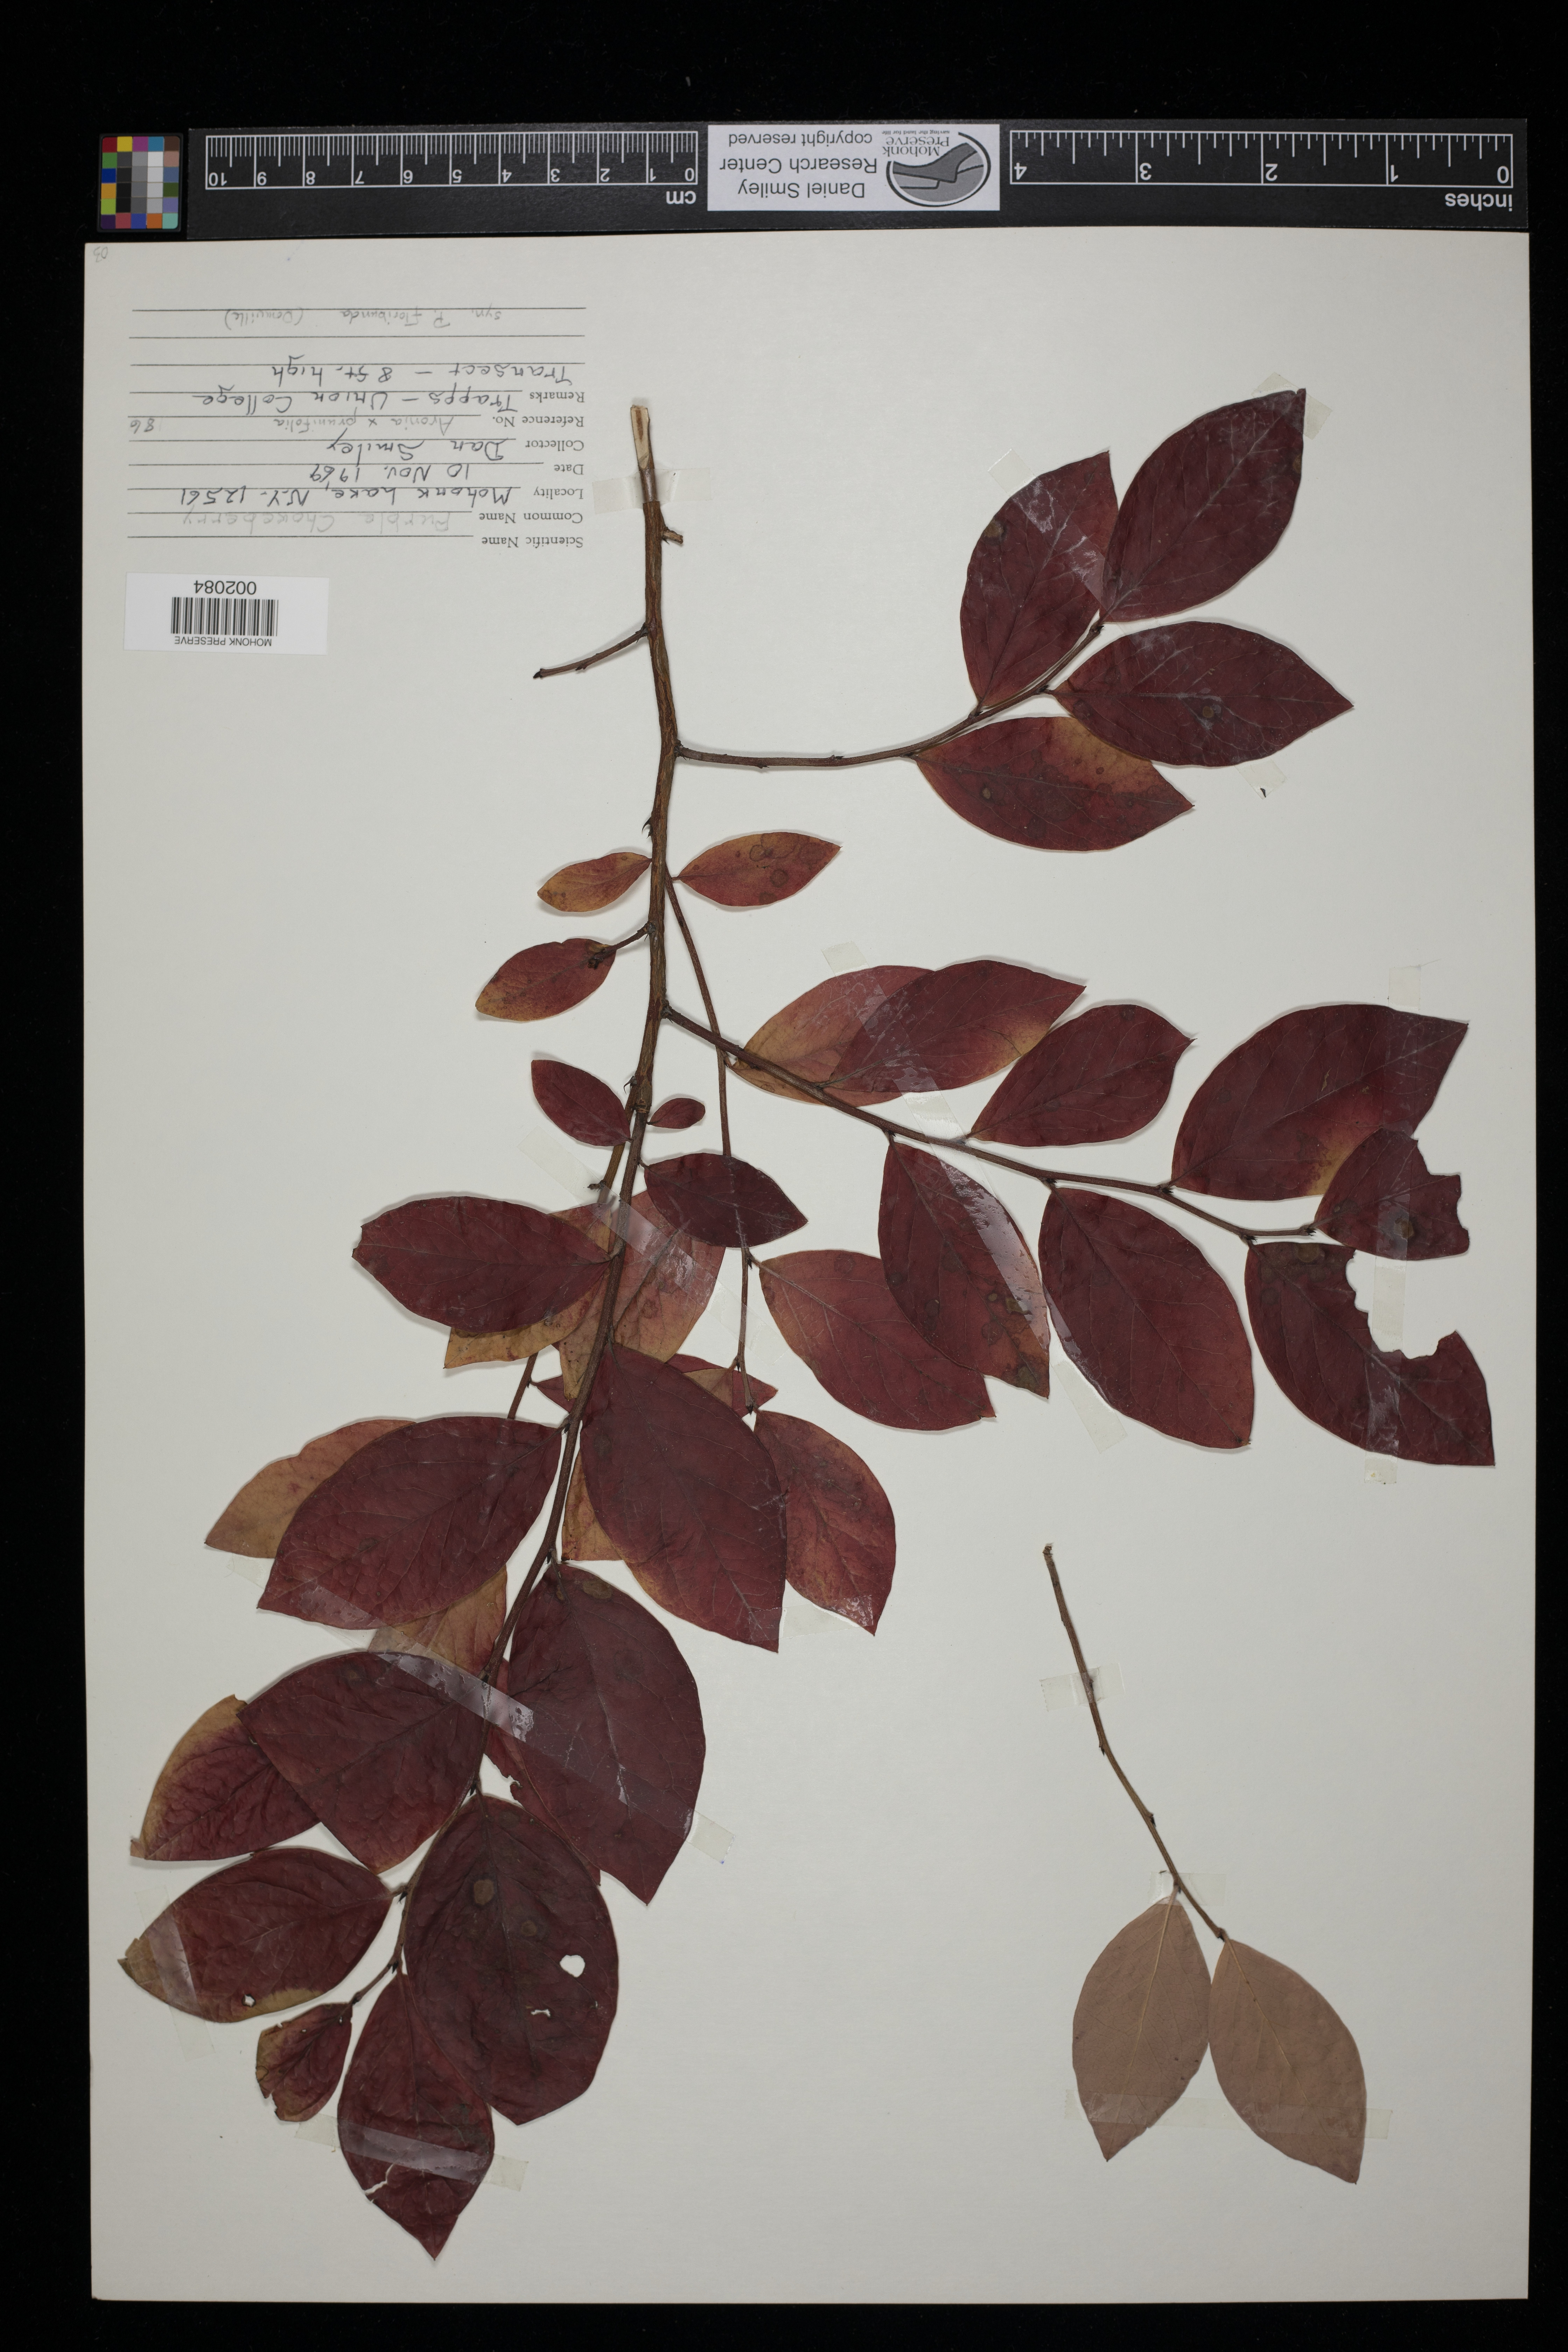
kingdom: Plantae
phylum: Tracheophyta
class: Magnoliopsida
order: Rosales
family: Rosaceae
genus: Aronia
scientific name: Aronia prunifolia
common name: Purple chokeberry
